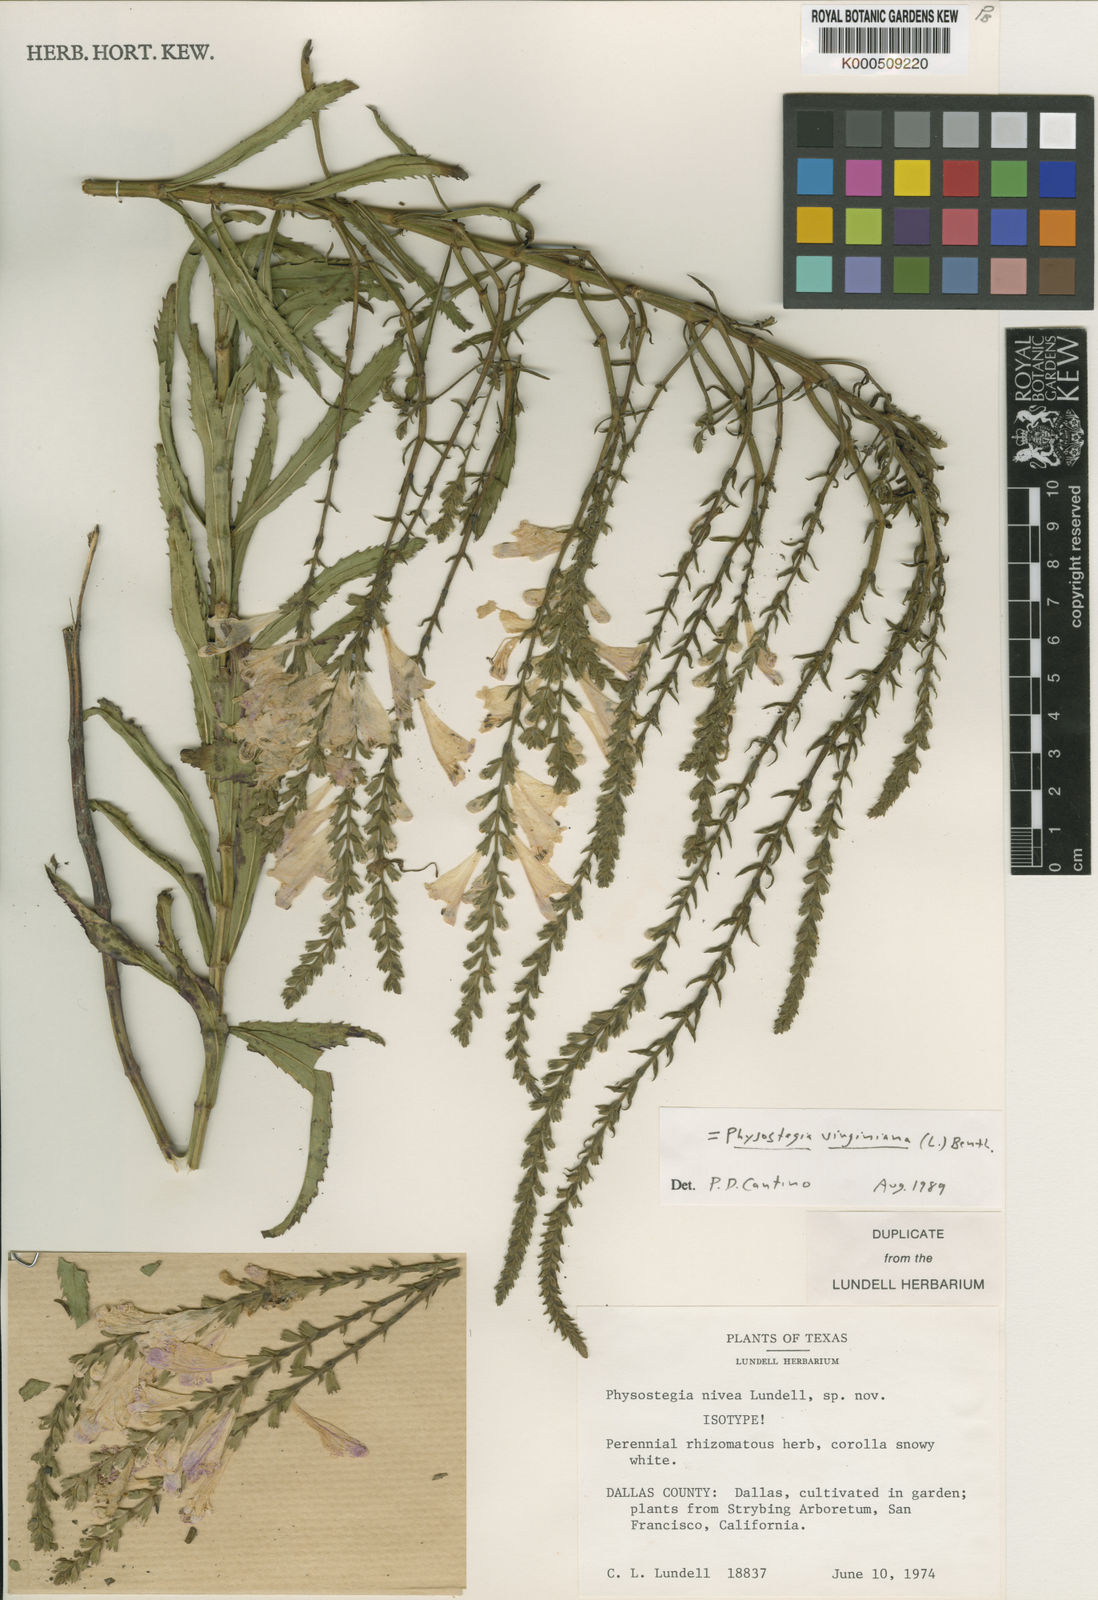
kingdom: Plantae
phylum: Tracheophyta
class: Magnoliopsida
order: Lamiales
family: Lamiaceae
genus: Physostegia
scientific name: Physostegia virginiana
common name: Obedient-plant
